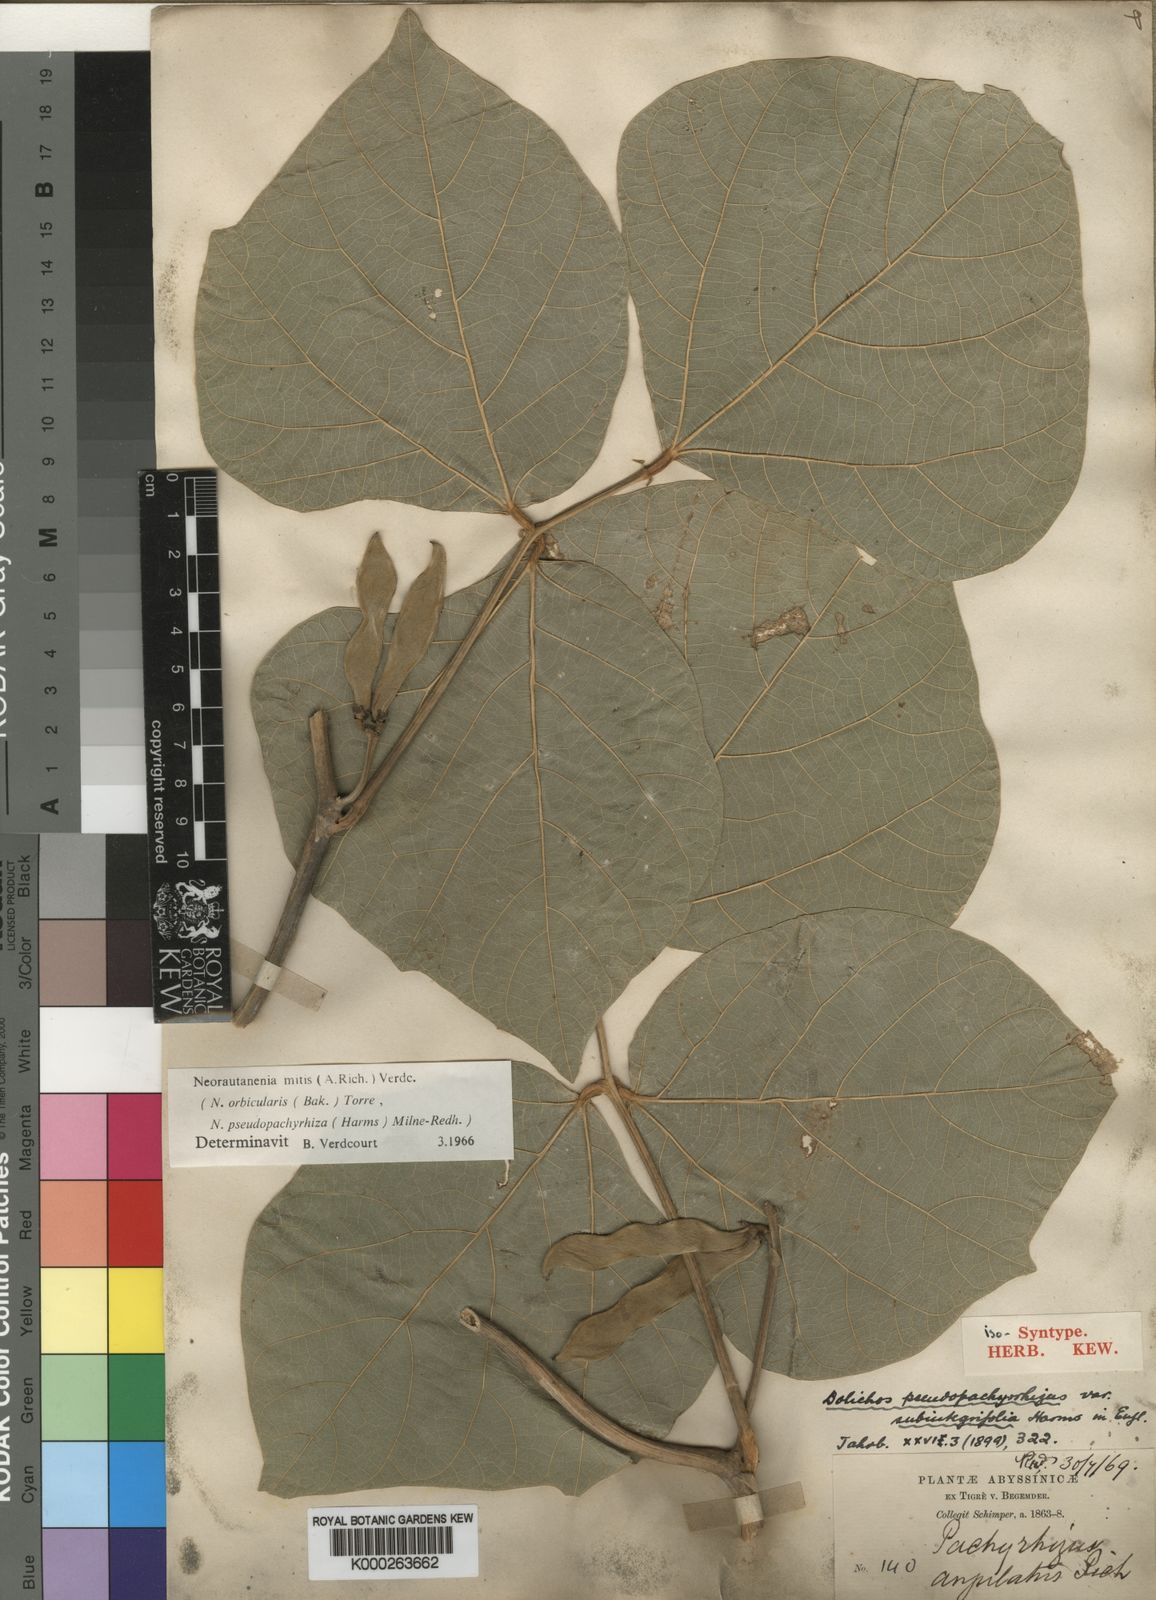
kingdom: Plantae
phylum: Tracheophyta
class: Magnoliopsida
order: Fabales
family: Fabaceae
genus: Neorautanenia
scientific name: Neorautanenia mitis
